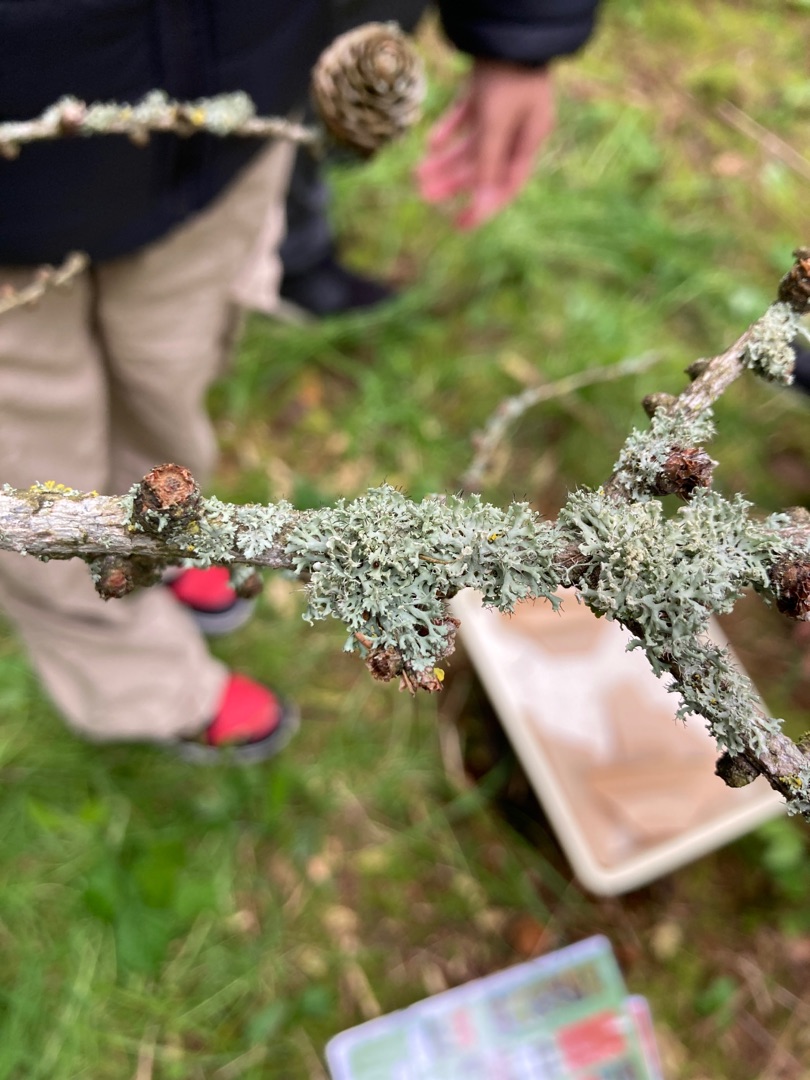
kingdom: Fungi
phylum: Ascomycota
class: Lecanoromycetes
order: Caliciales
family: Physciaceae
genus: Physcia
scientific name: Physcia tenella
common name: Spæd rosetlav
